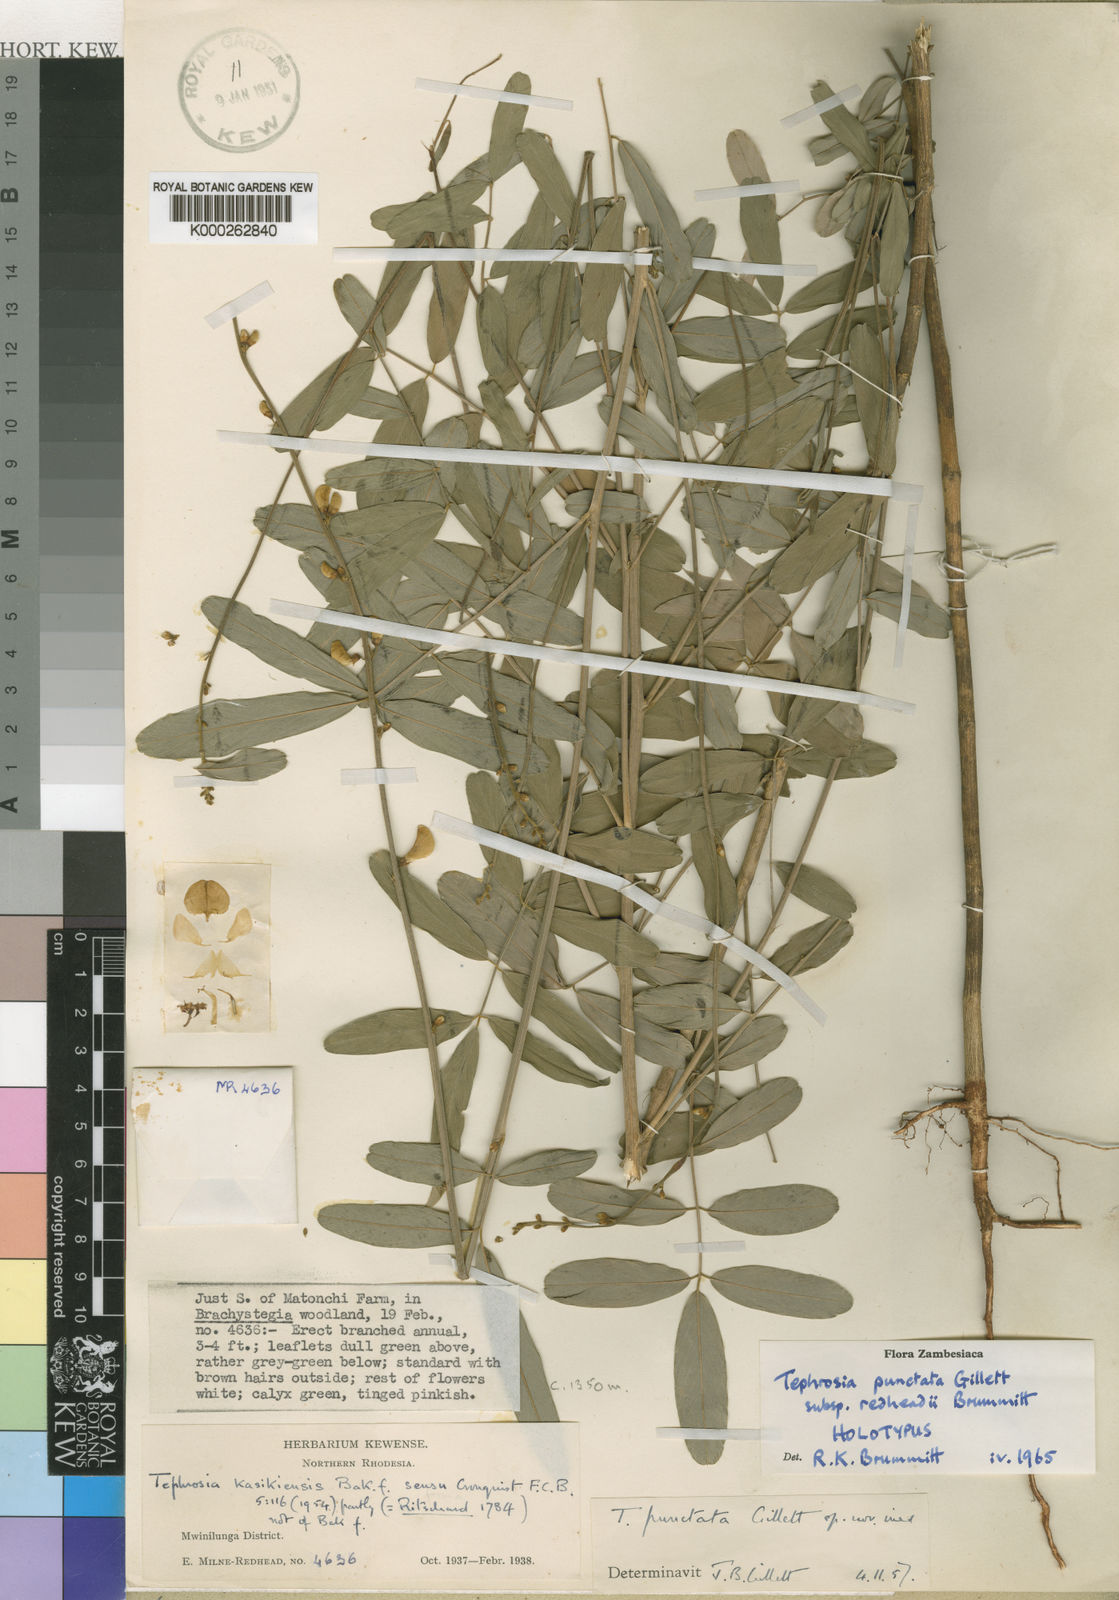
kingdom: Plantae
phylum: Tracheophyta
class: Magnoliopsida
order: Fabales
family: Fabaceae
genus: Tephrosia
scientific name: Tephrosia punctata
